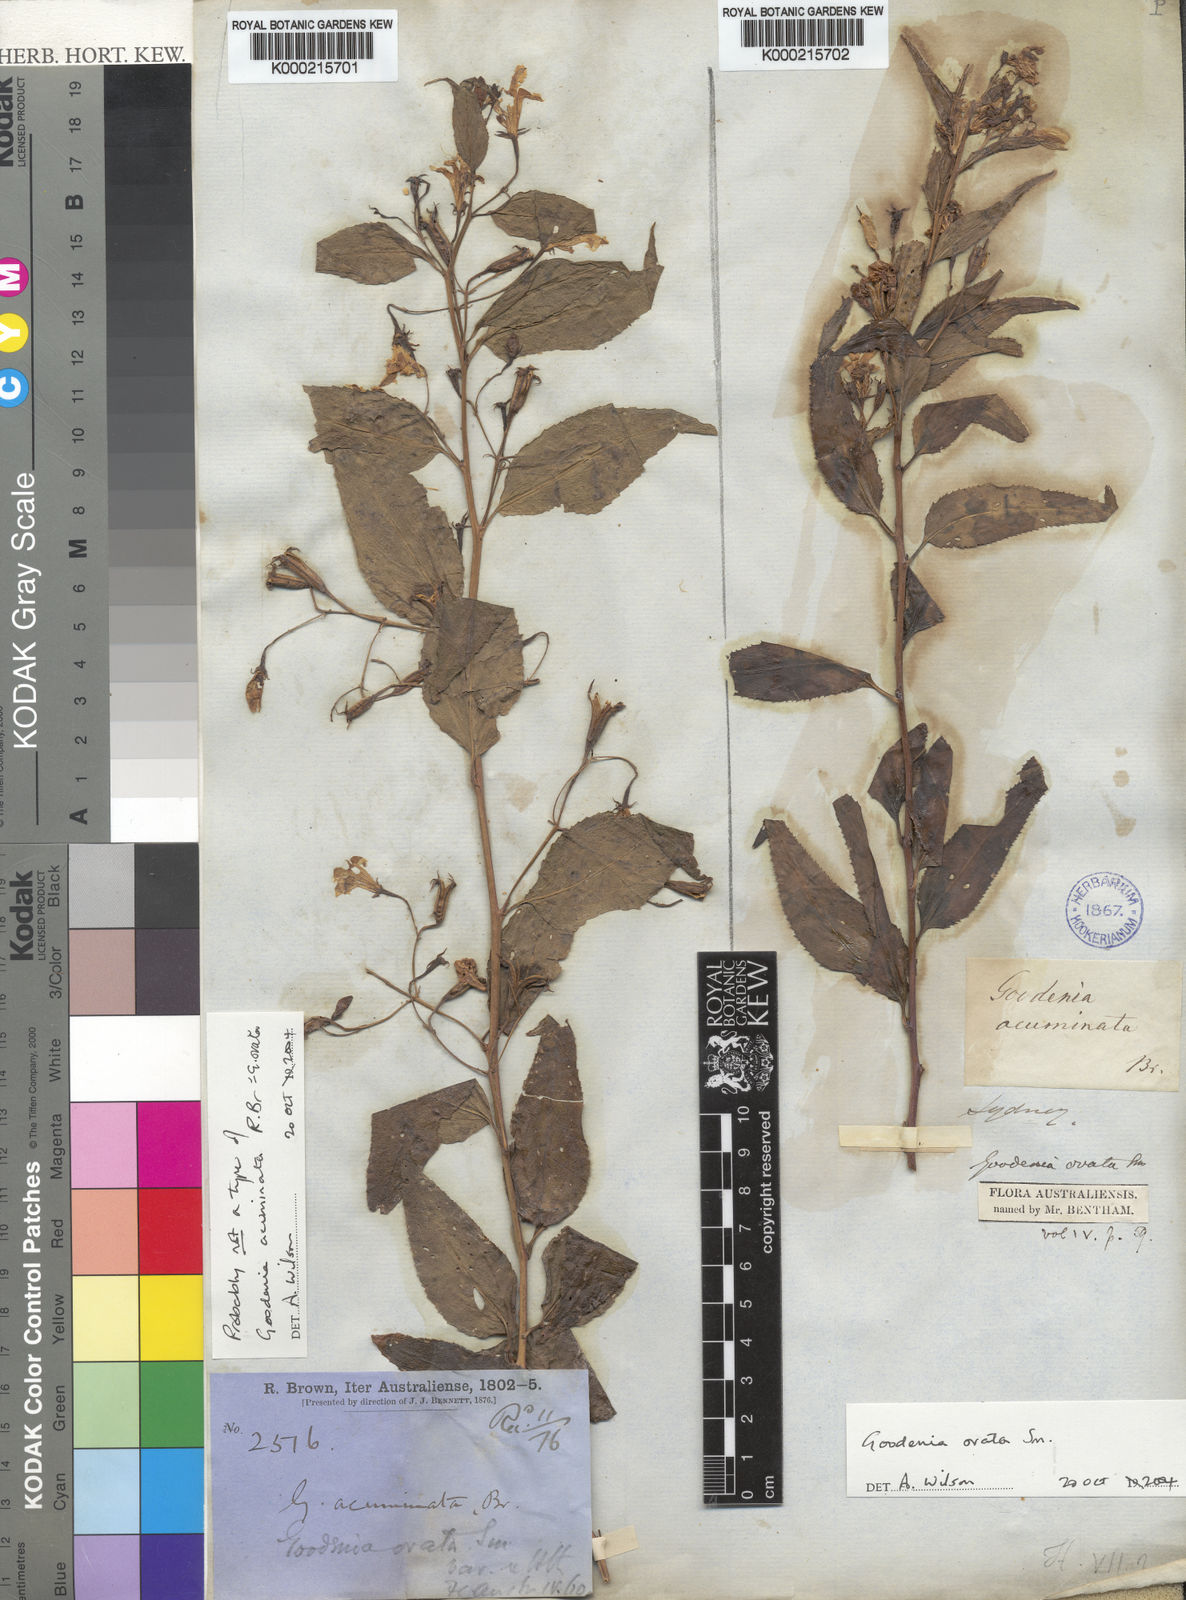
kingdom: Plantae
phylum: Tracheophyta
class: Magnoliopsida
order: Asterales
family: Goodeniaceae
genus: Goodenia
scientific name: Goodenia ovata
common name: Hop goodenia
